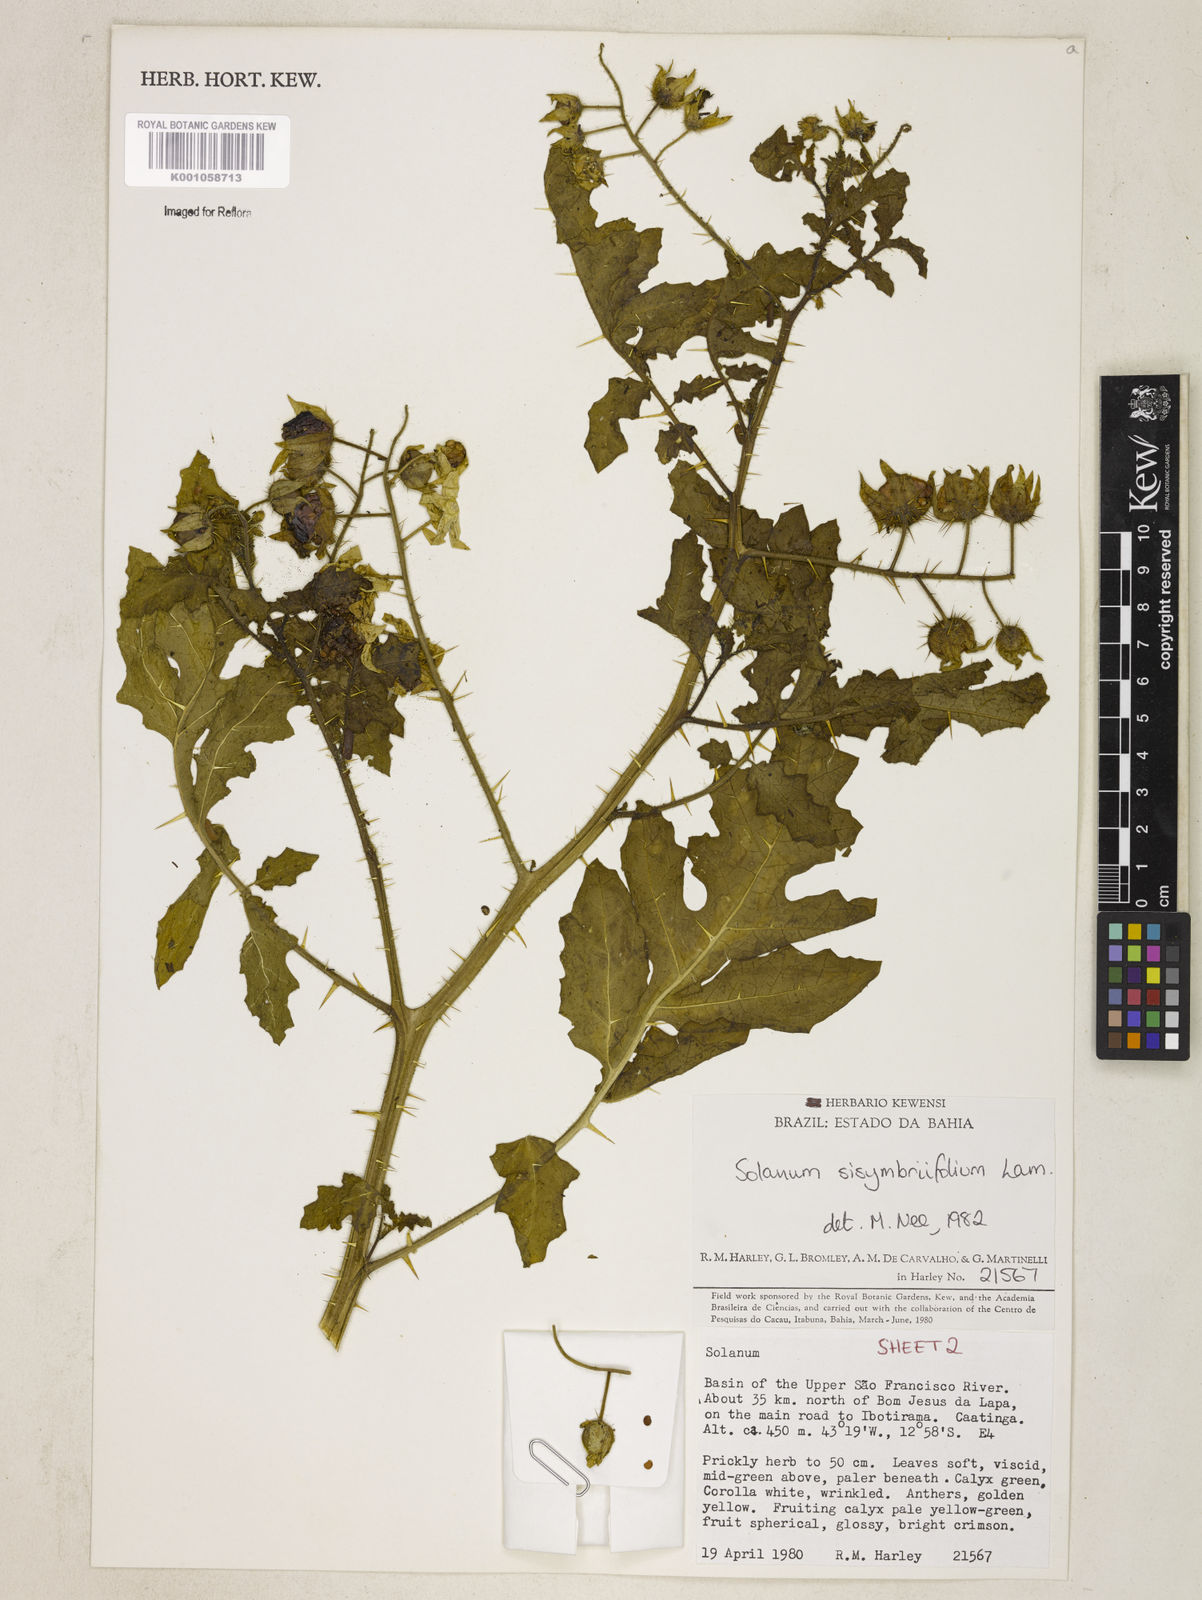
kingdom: Plantae
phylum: Tracheophyta
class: Magnoliopsida
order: Solanales
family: Solanaceae
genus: Solanum
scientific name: Solanum sisymbriifolium
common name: Red buffalo-bur
